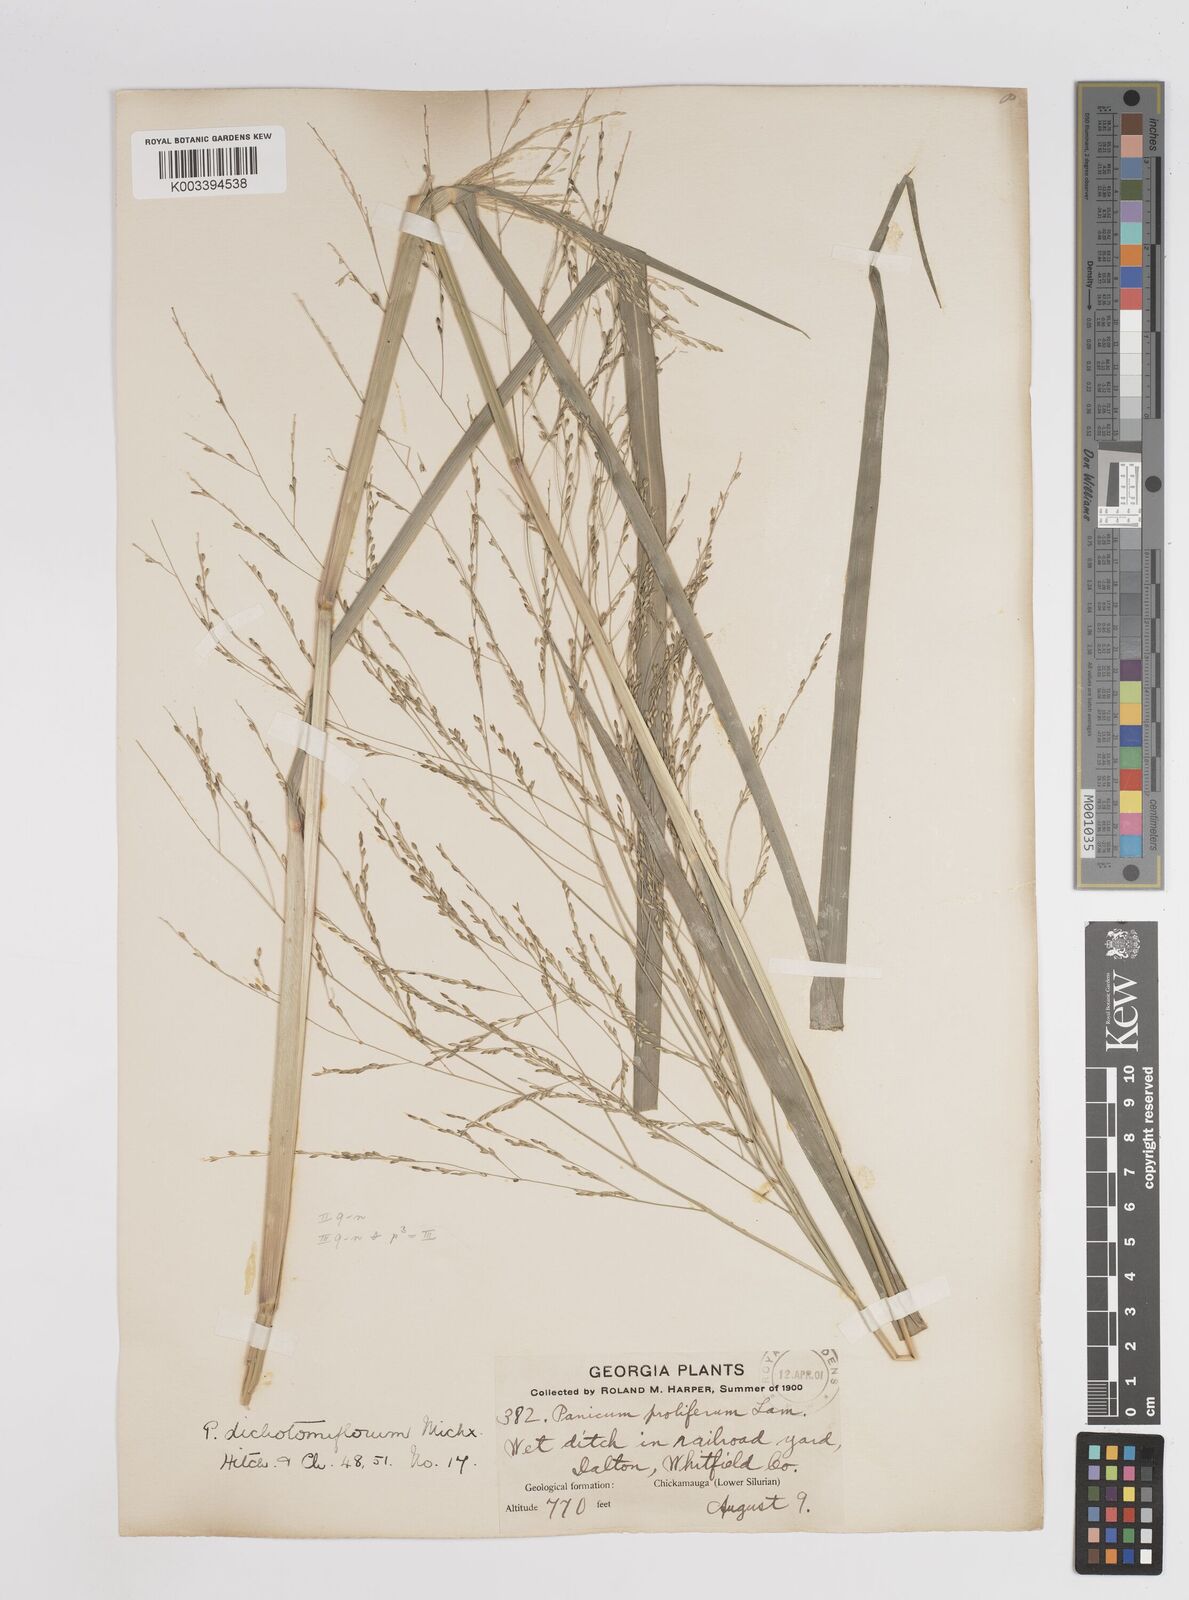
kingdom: Plantae
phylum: Tracheophyta
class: Liliopsida
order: Poales
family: Poaceae
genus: Panicum
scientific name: Panicum bartowense
